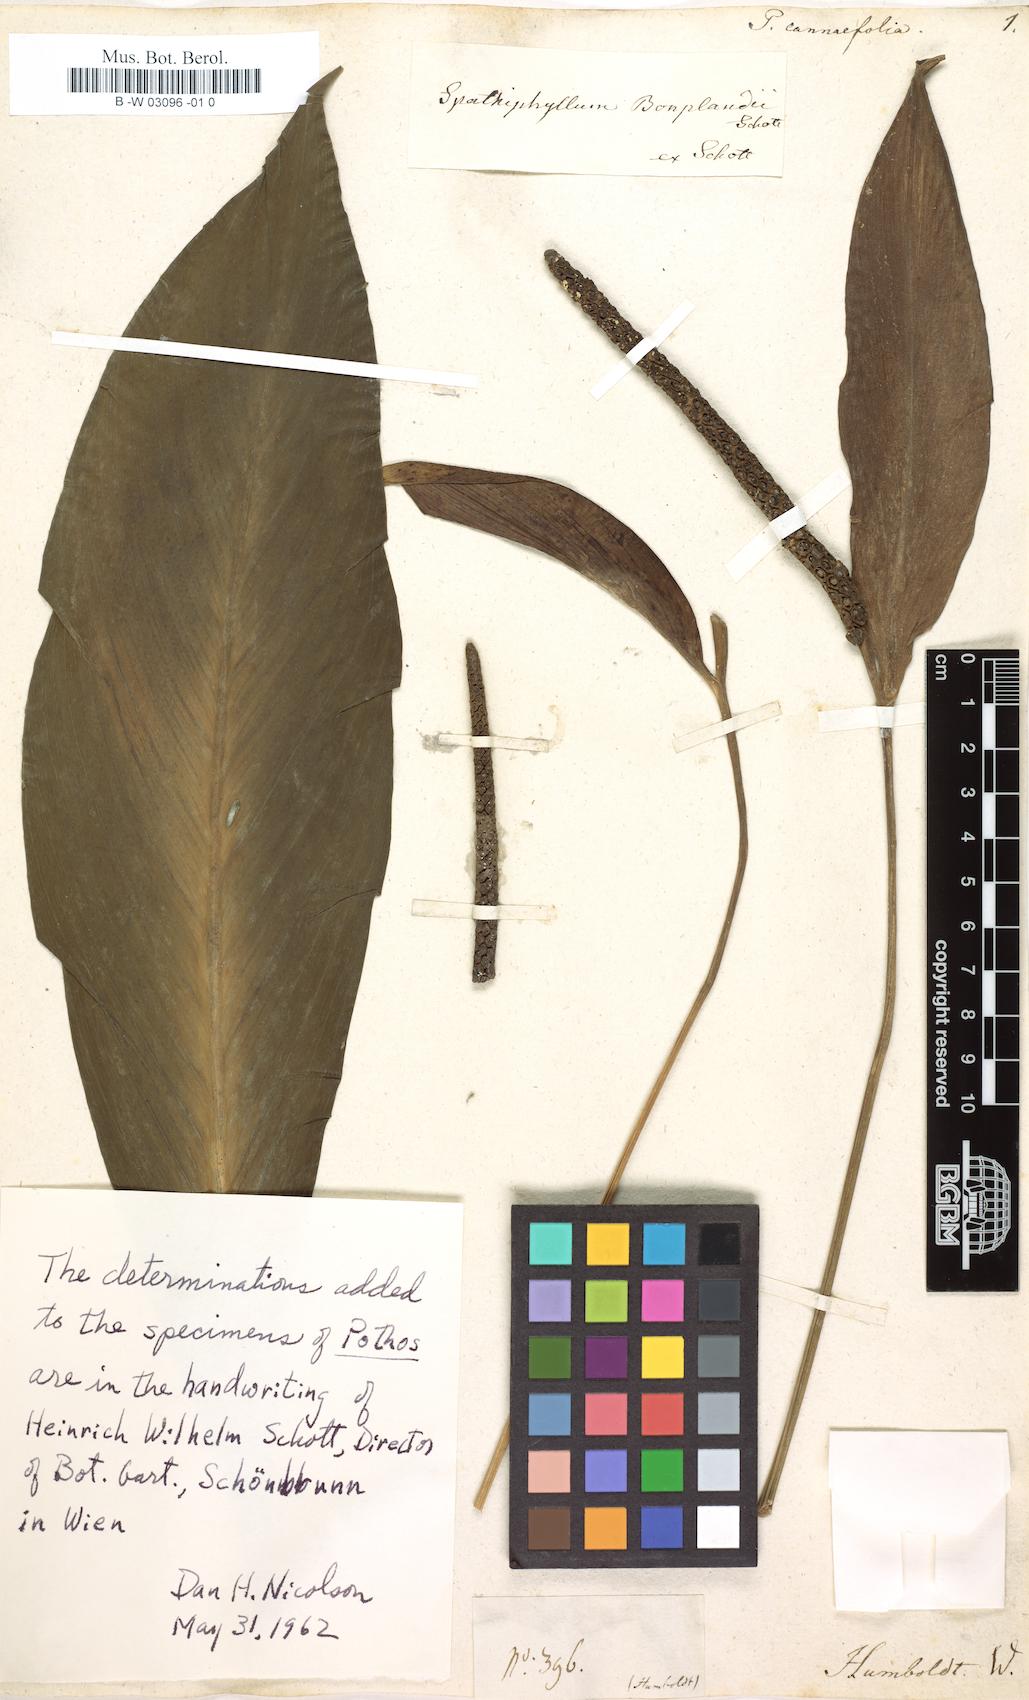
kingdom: Plantae
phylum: Tracheophyta
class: Liliopsida
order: Alismatales
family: Araceae
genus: Spathiphyllum
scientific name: Spathiphyllum cannifolium
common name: Spatheflower
